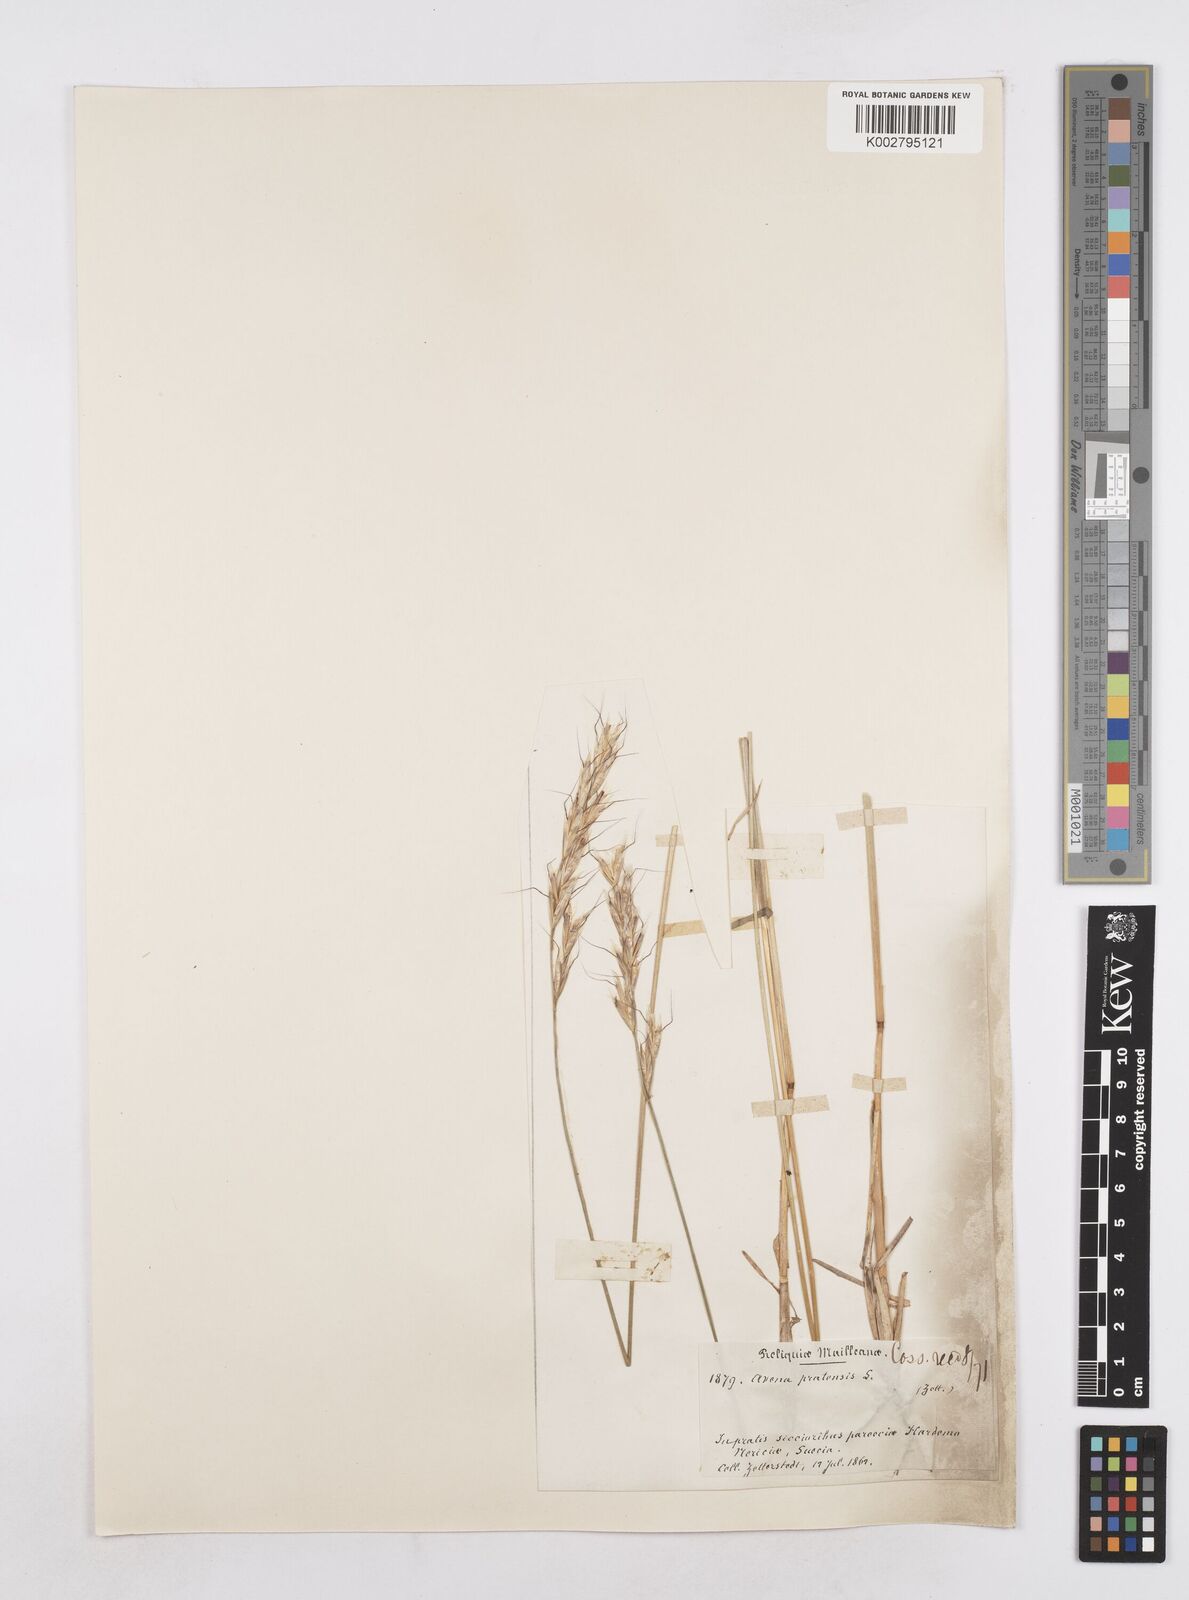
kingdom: Plantae
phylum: Tracheophyta
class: Liliopsida
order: Poales
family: Poaceae
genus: Helictochloa
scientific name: Helictochloa pratensis
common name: Meadow oat grass
